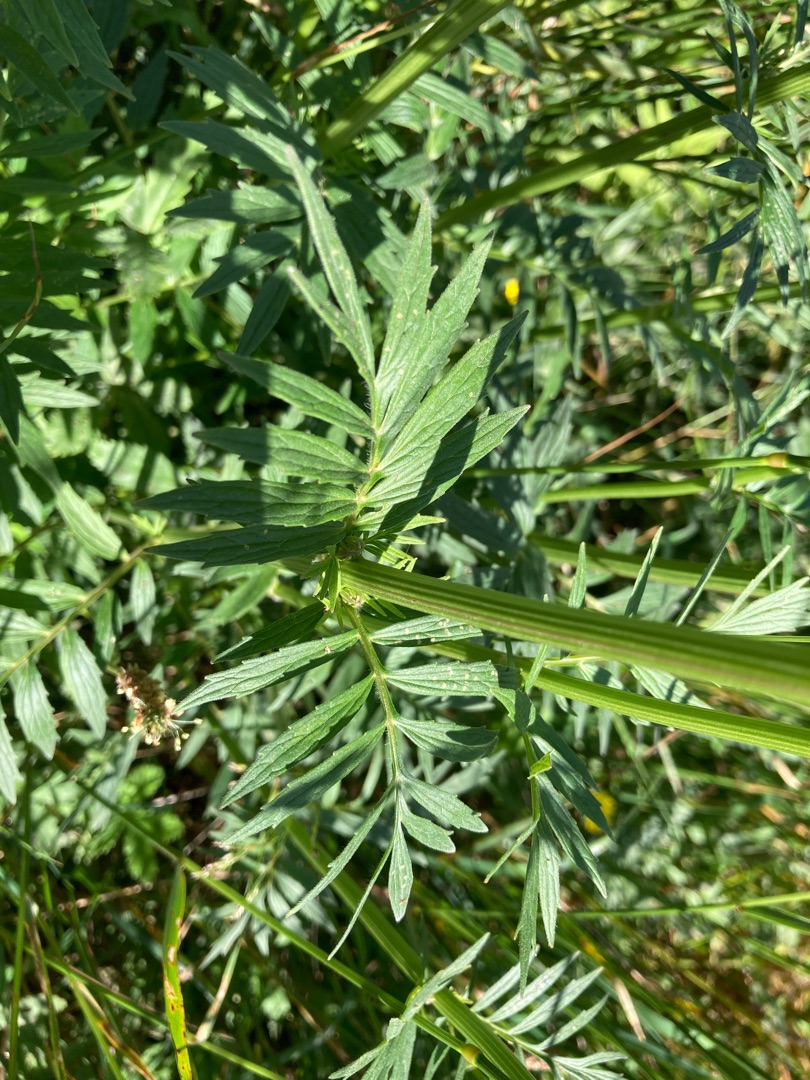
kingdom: Plantae
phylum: Tracheophyta
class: Magnoliopsida
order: Dipsacales
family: Caprifoliaceae
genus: Valeriana
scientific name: Valeriana officinalis
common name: Læge-baldrian
